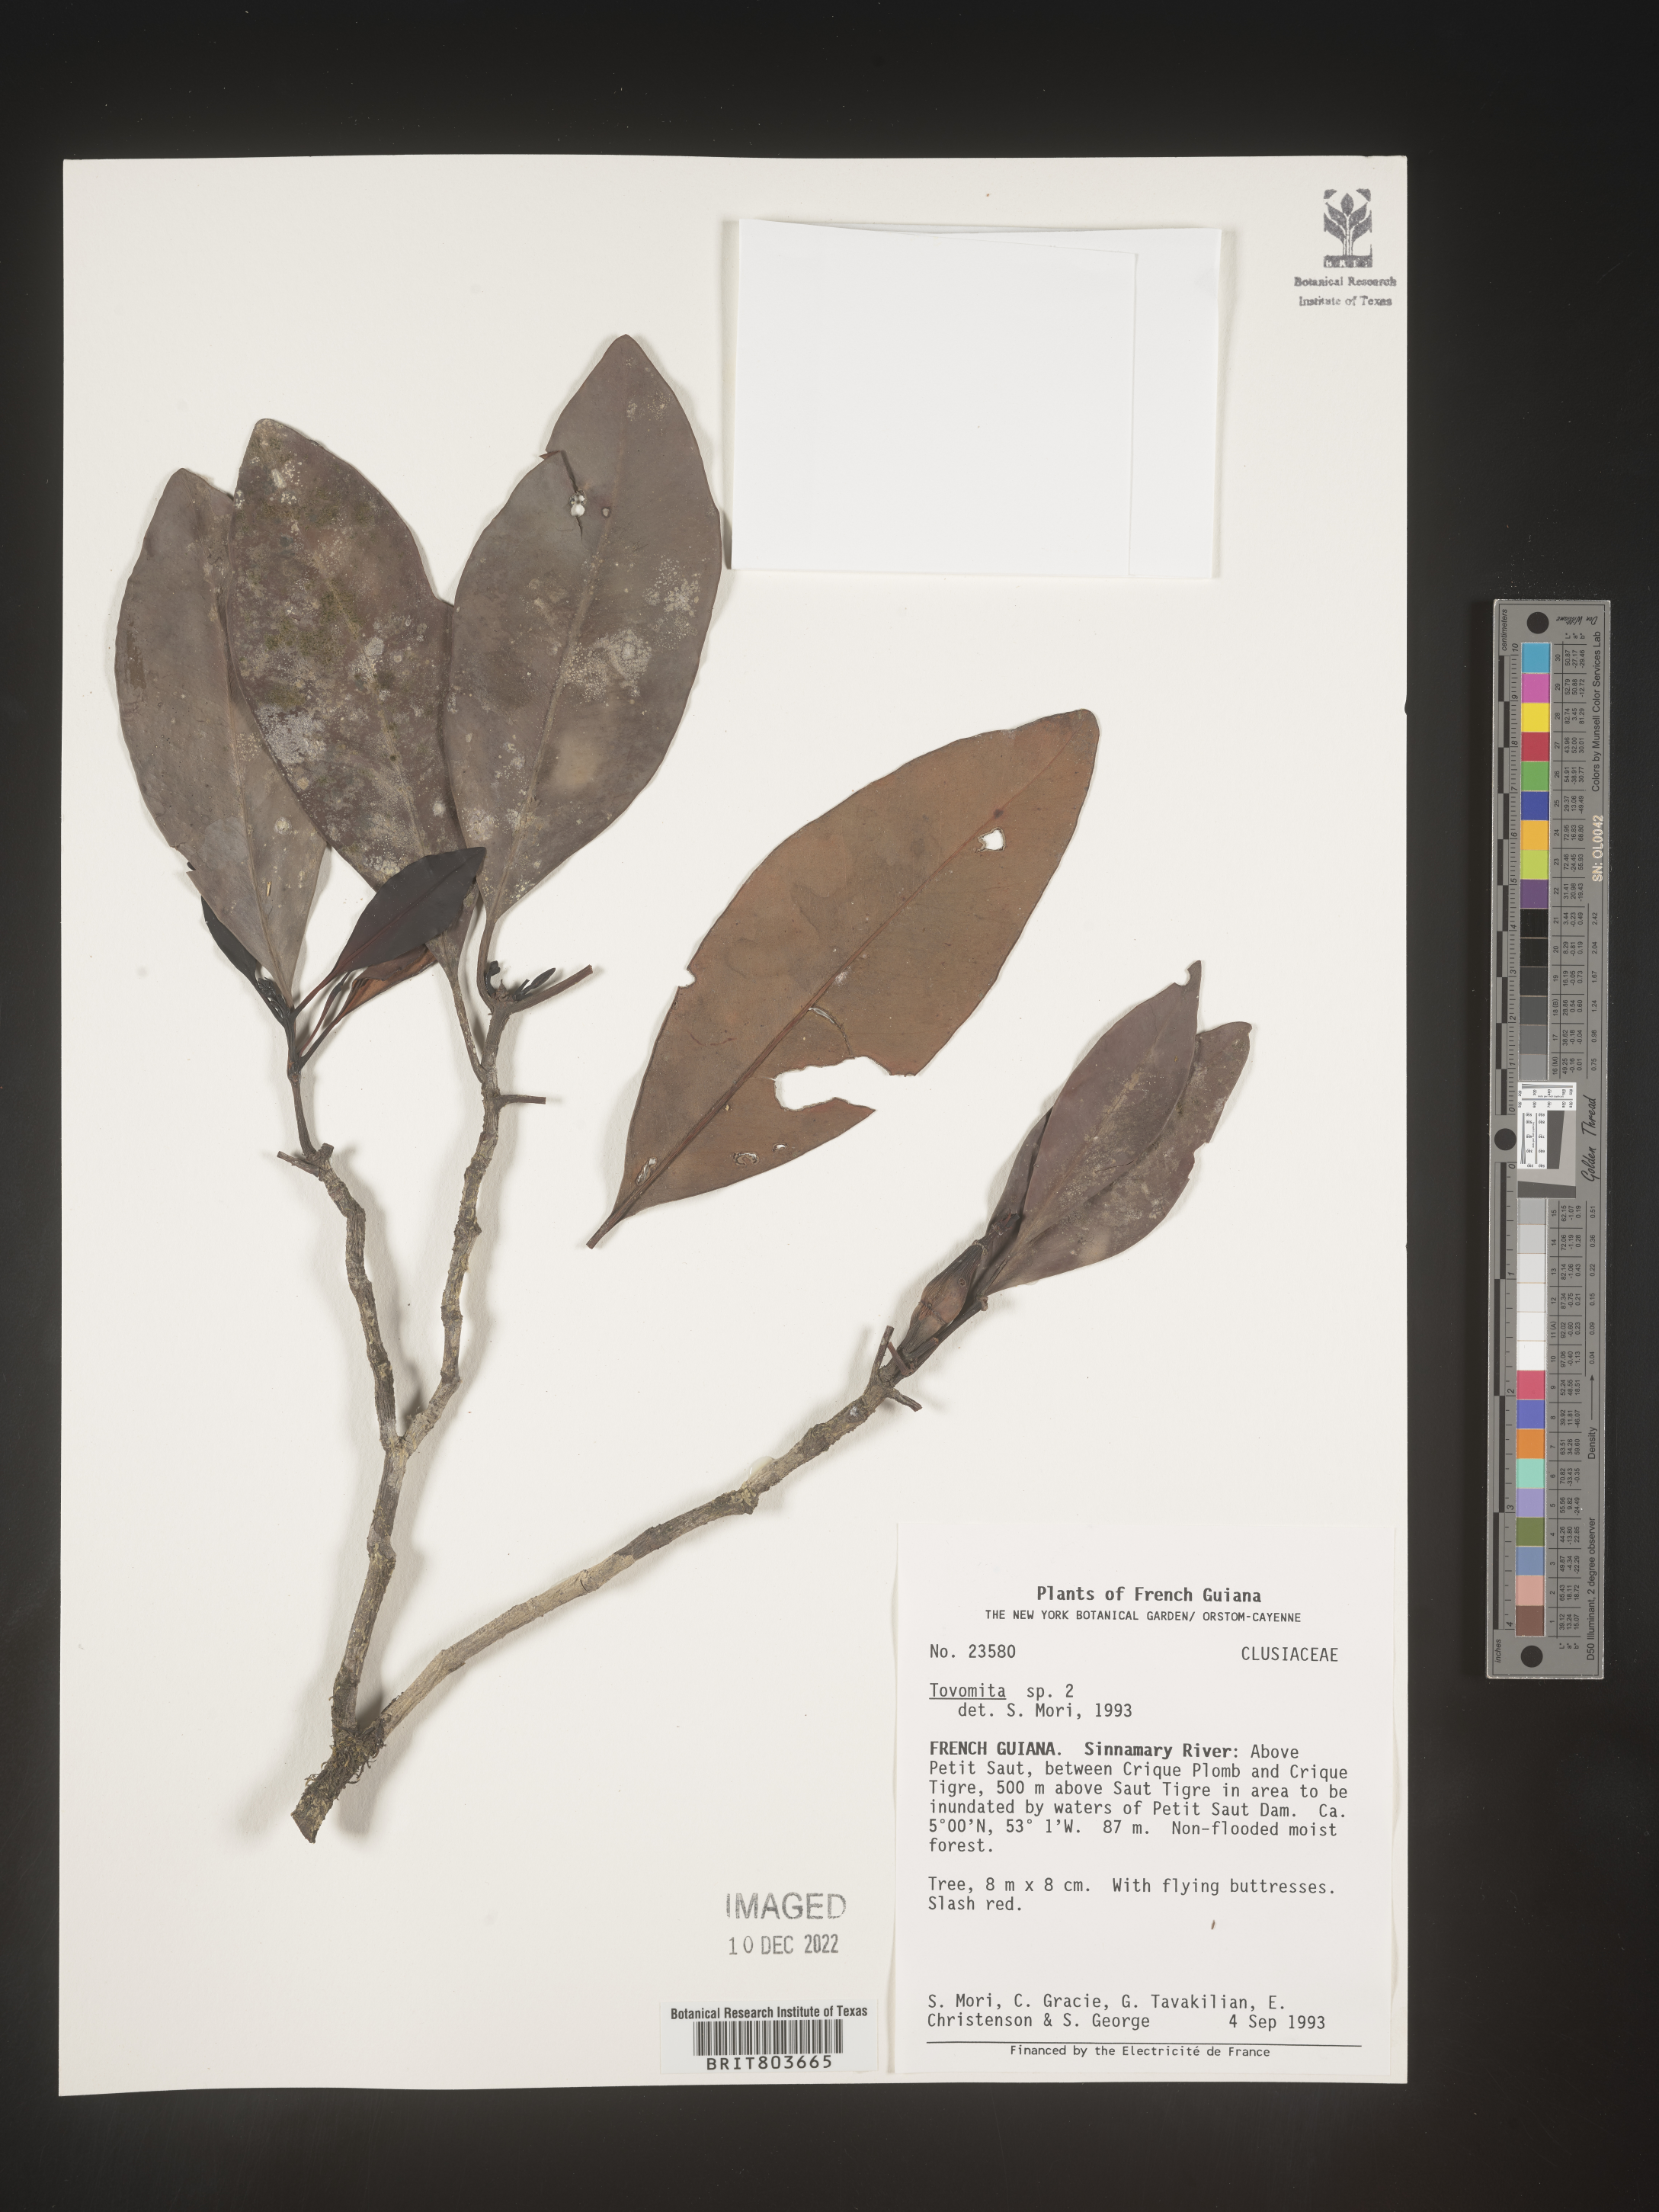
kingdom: Plantae
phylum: Tracheophyta
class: Magnoliopsida
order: Malpighiales
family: Clusiaceae
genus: Tovomita
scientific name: Tovomita
